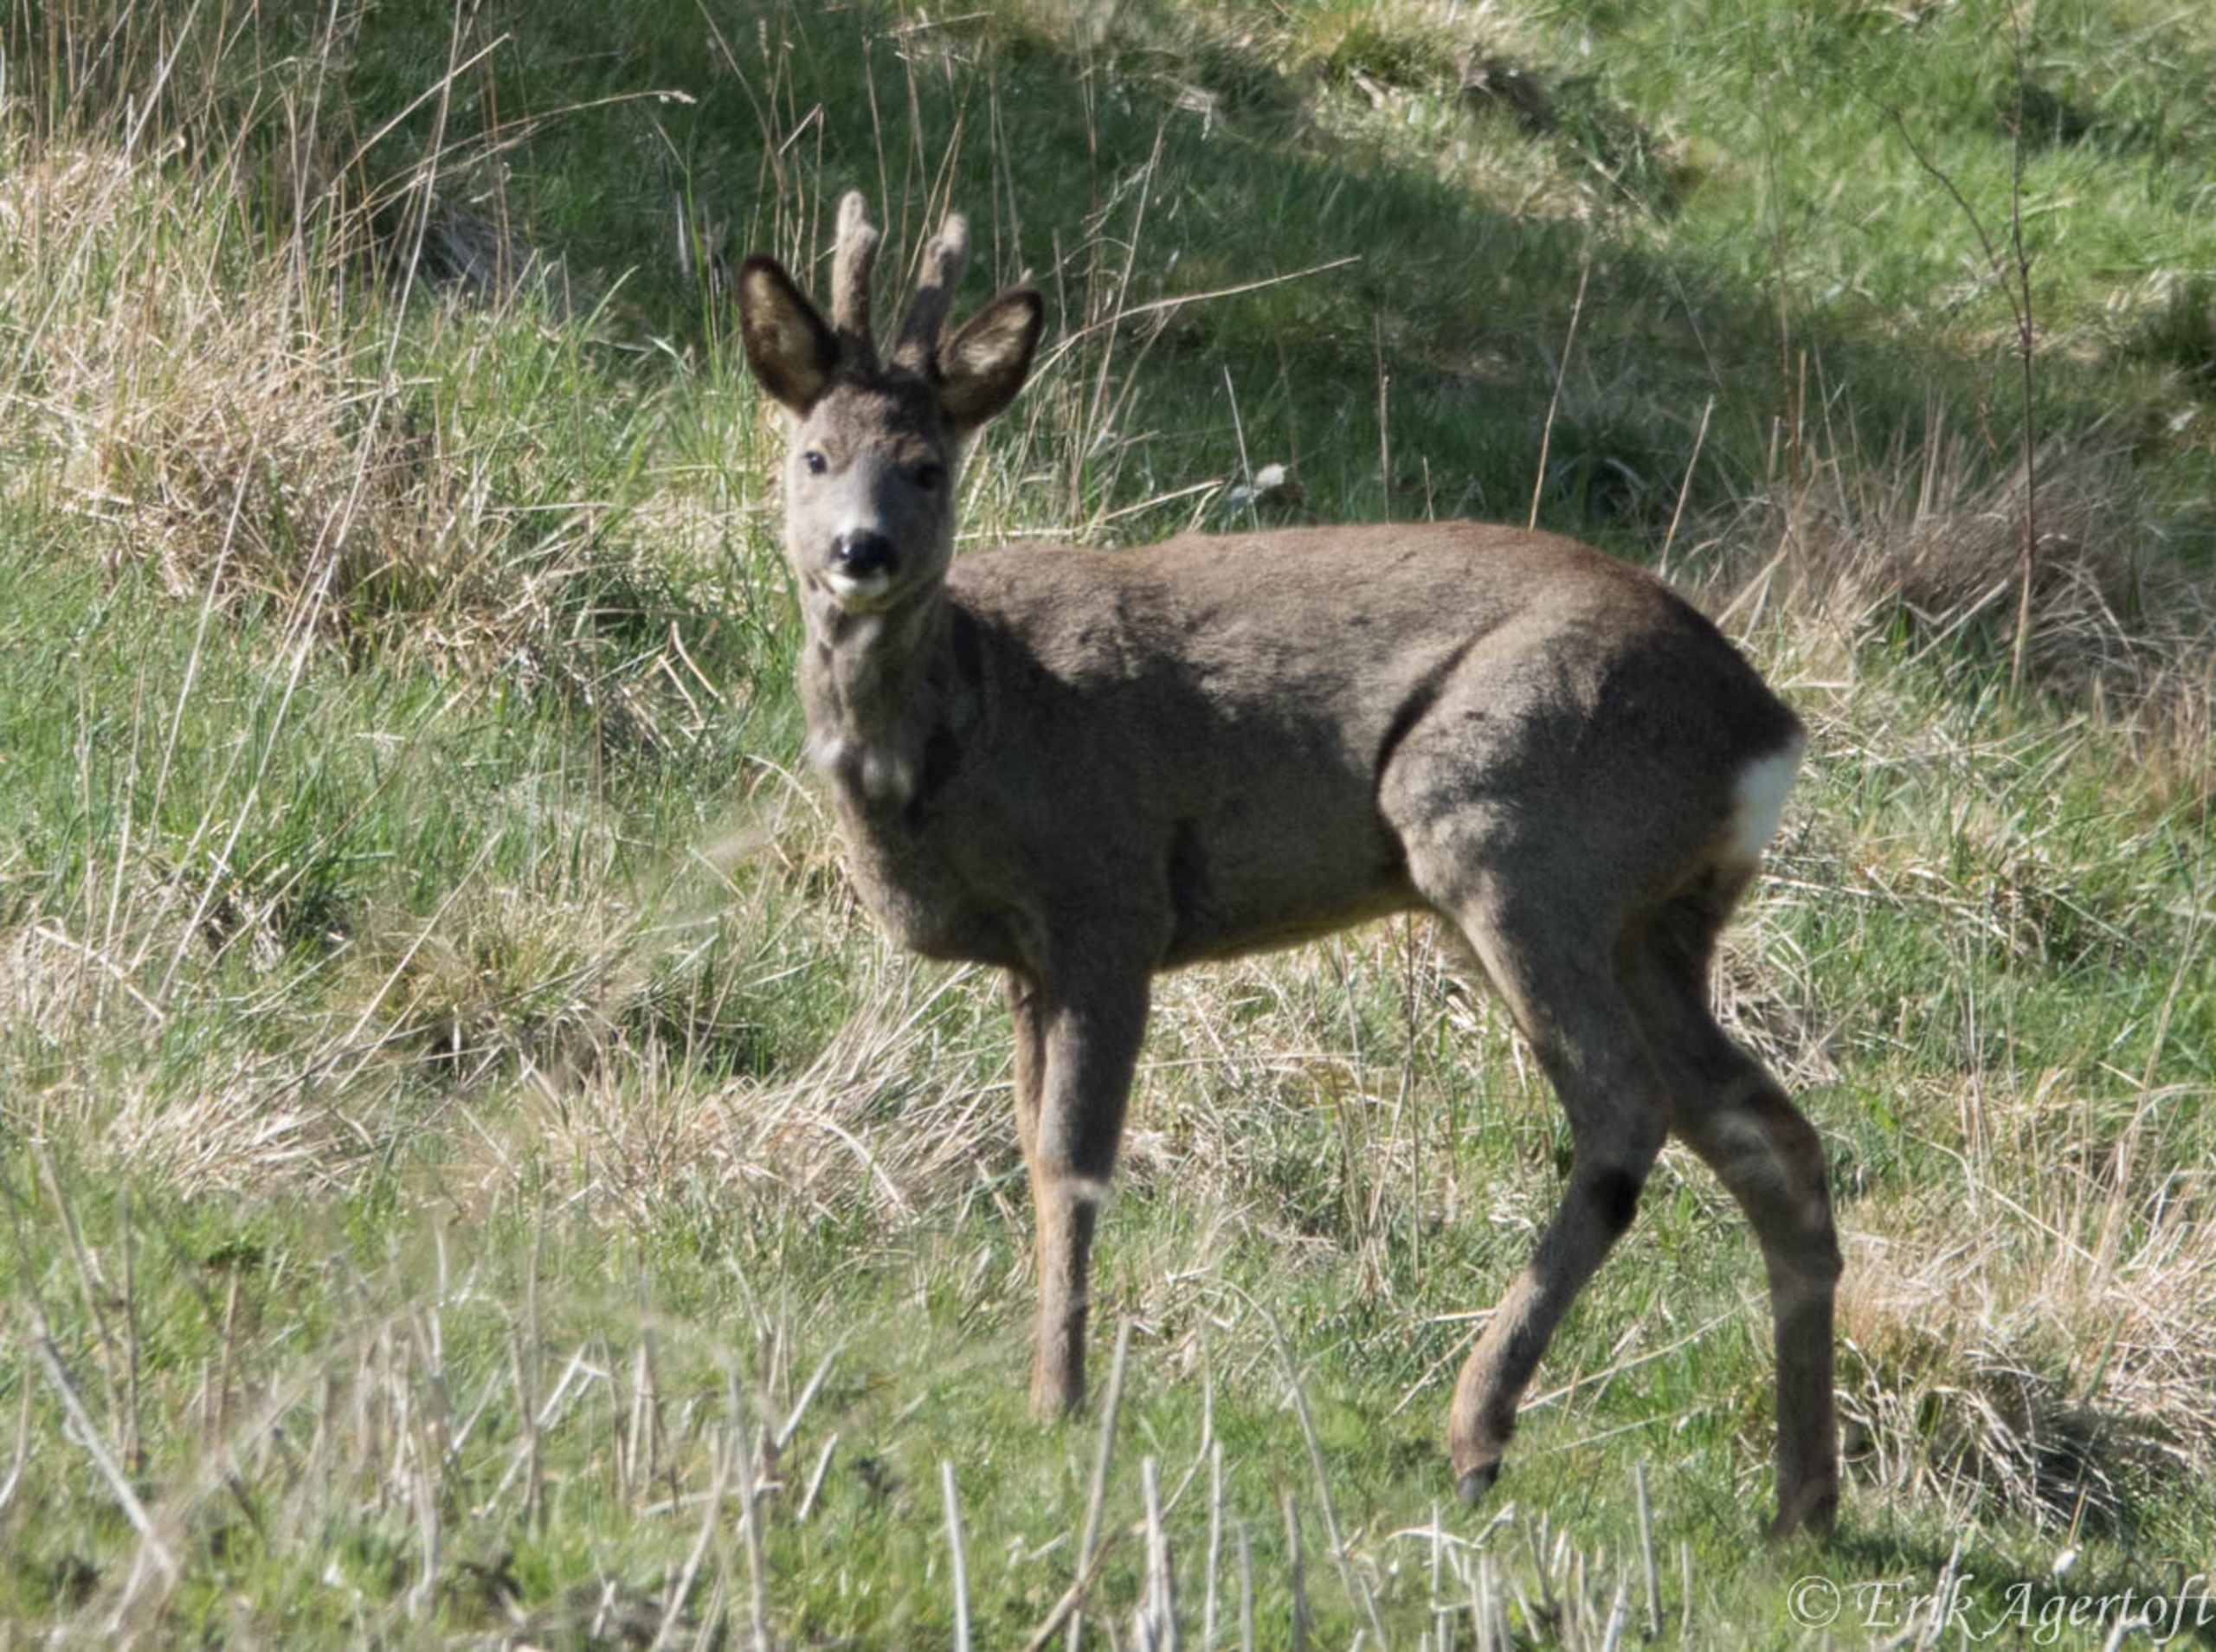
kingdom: Animalia
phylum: Chordata
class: Mammalia
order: Artiodactyla
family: Cervidae
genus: Capreolus
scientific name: Capreolus capreolus
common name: Rådyr
